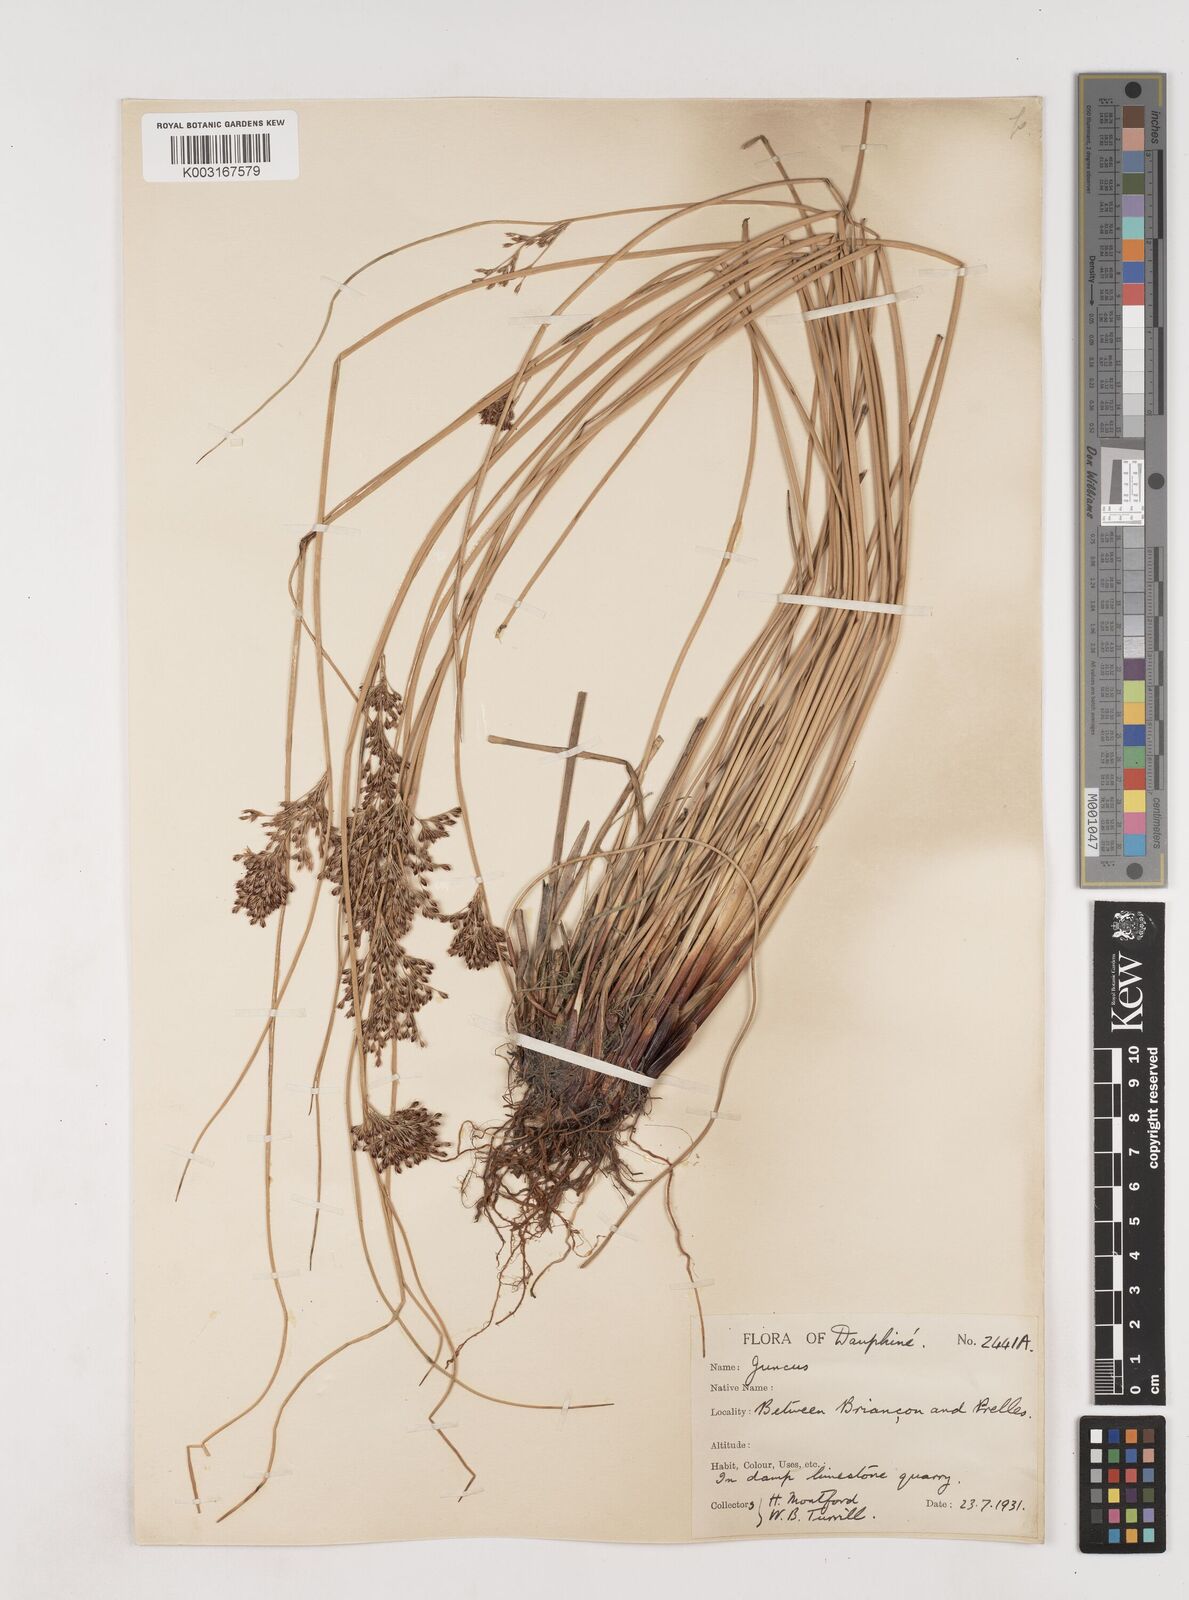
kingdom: Plantae
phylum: Tracheophyta
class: Liliopsida
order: Poales
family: Juncaceae
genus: Juncus
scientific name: Juncus inflexus
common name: Hard rush
